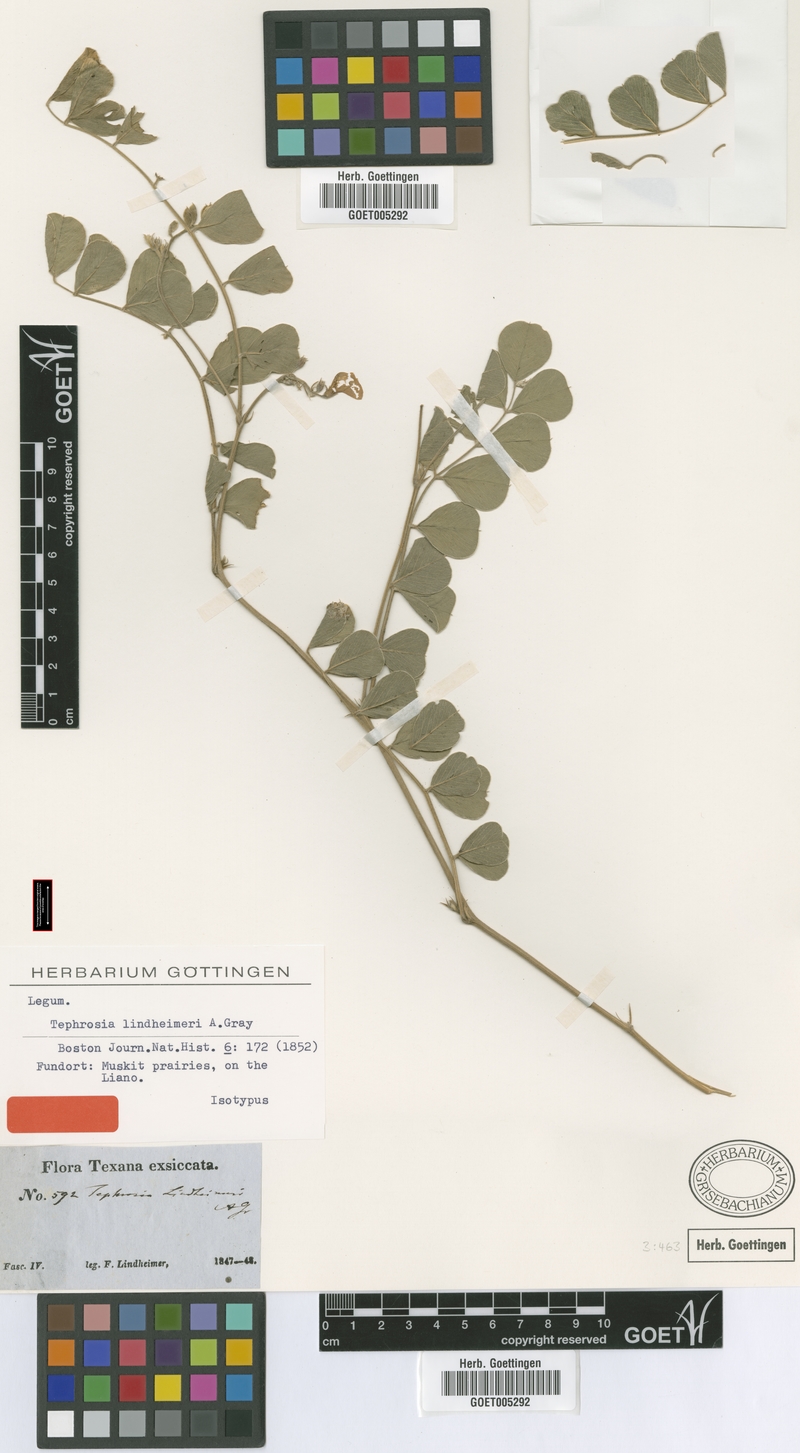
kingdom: Plantae
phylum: Tracheophyta
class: Magnoliopsida
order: Fabales
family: Fabaceae
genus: Tephrosia
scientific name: Tephrosia lindheimeri
